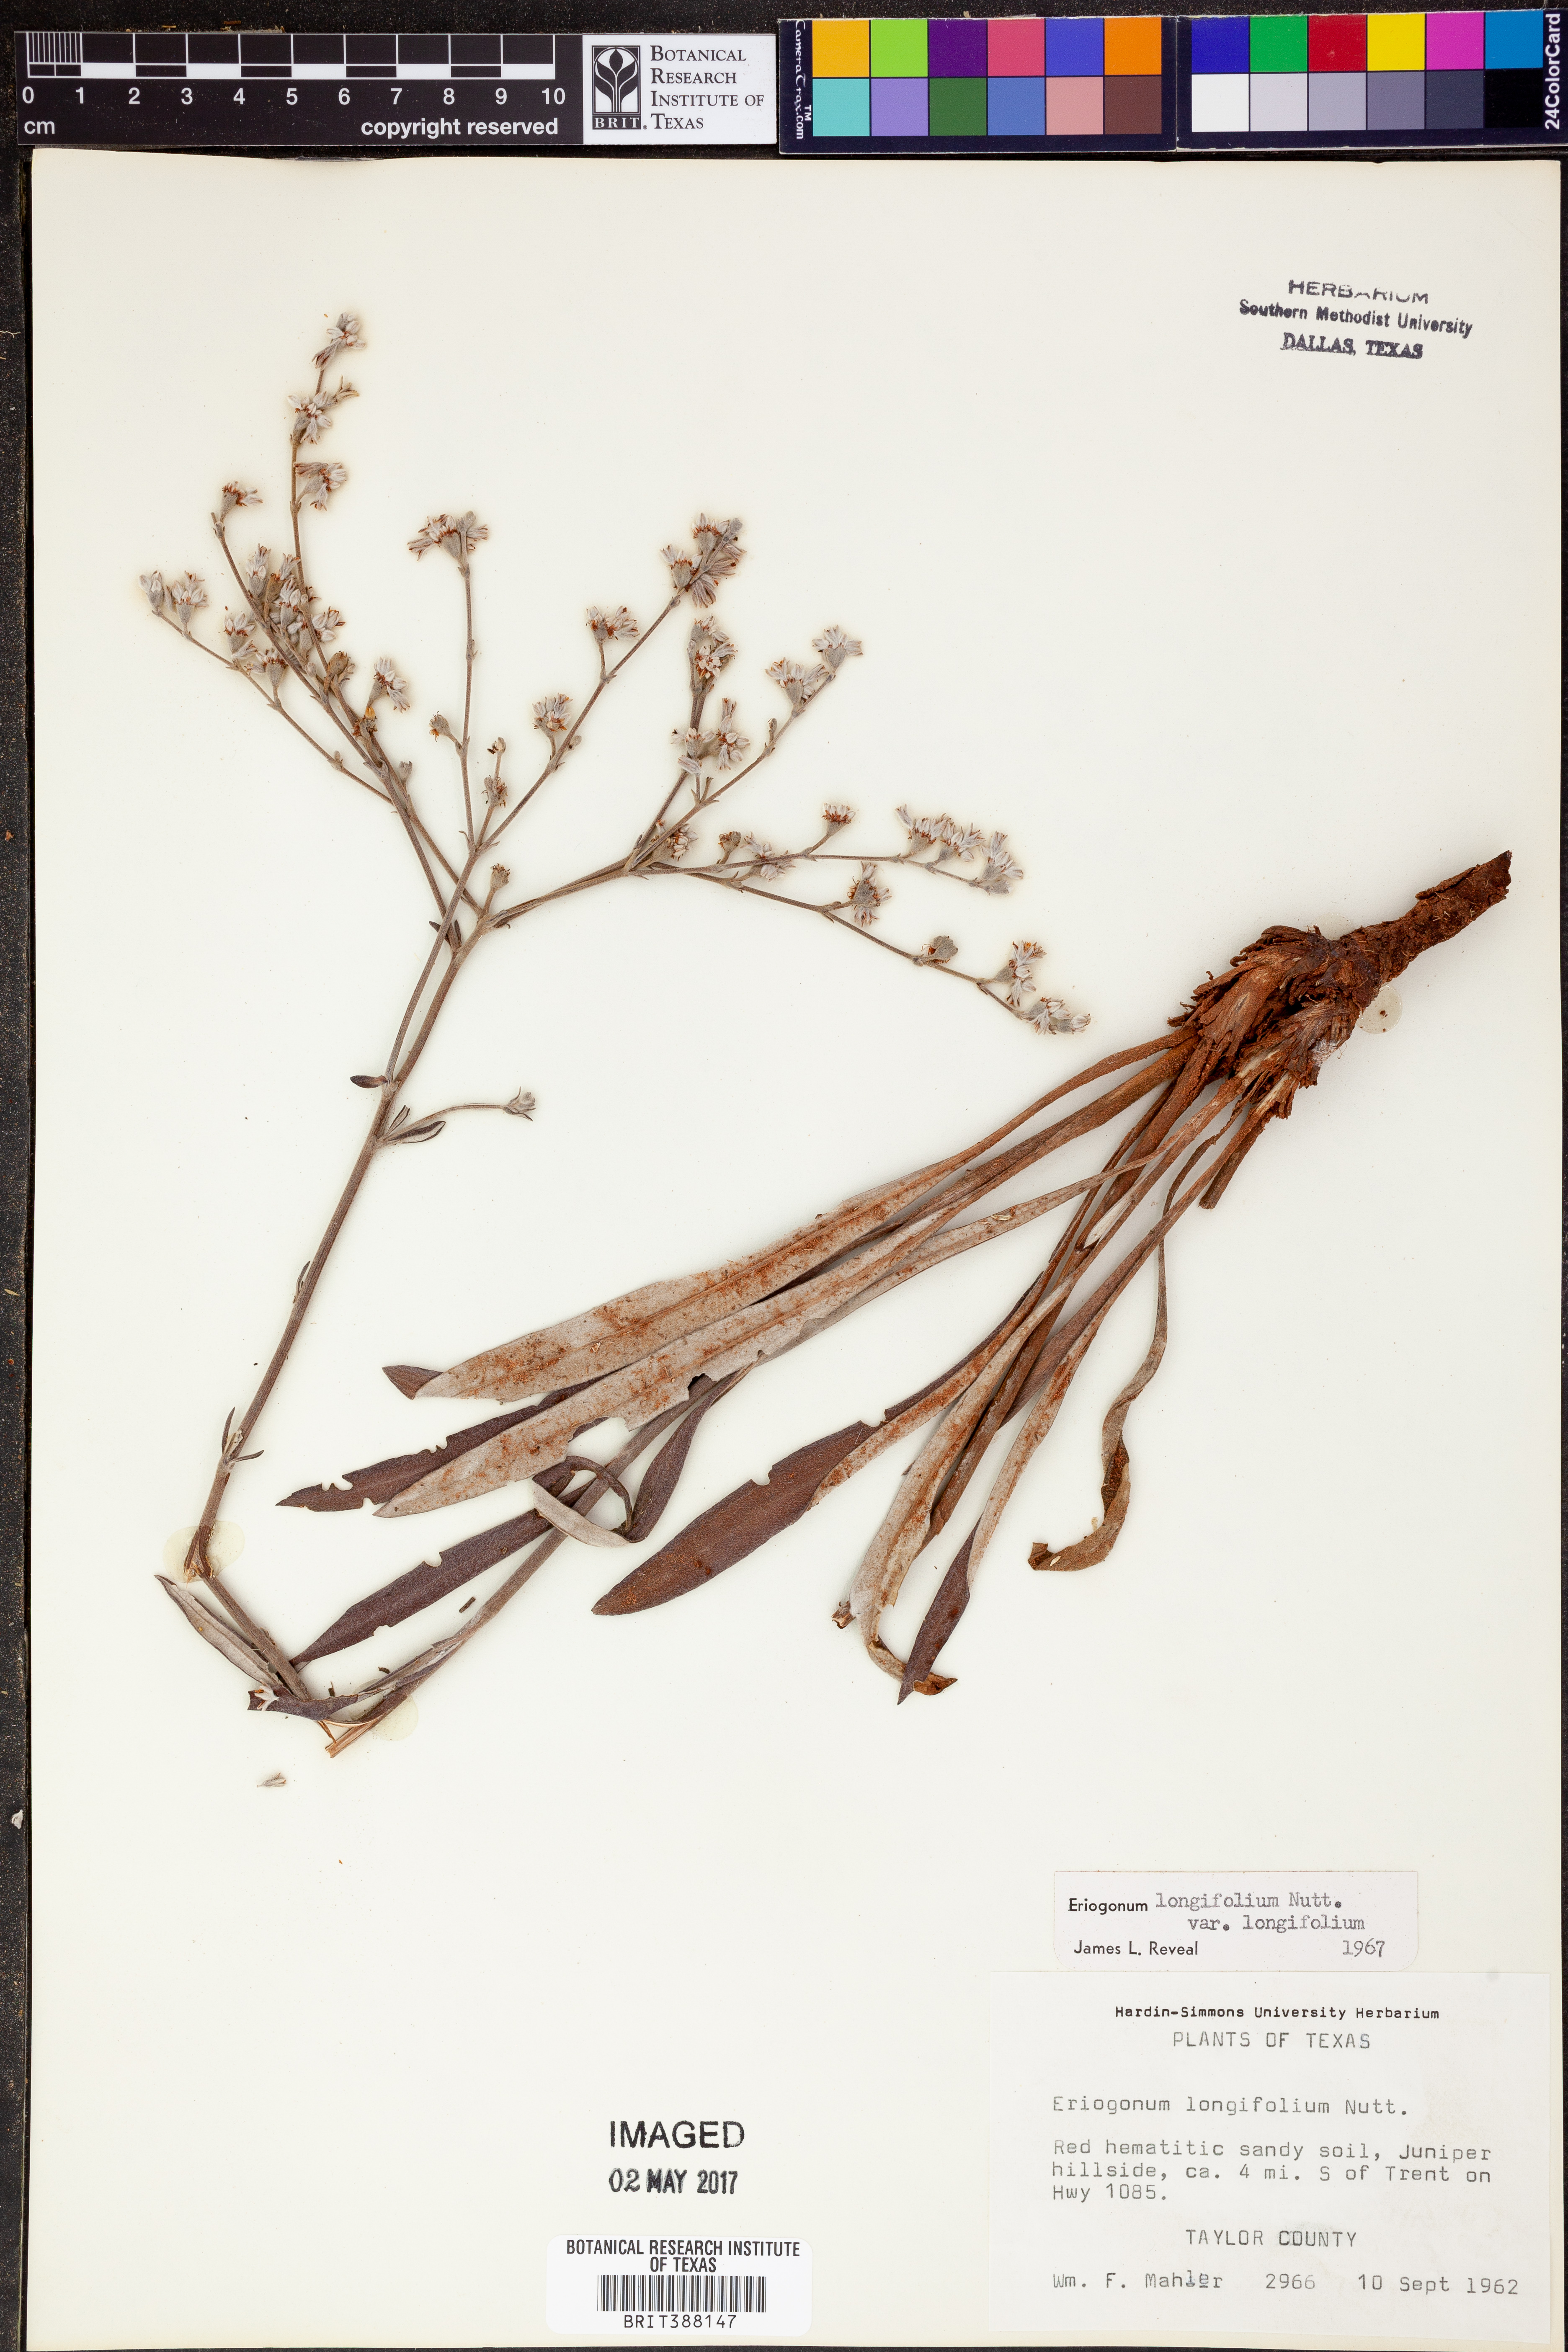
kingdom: Plantae
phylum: Tracheophyta
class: Magnoliopsida
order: Caryophyllales
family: Polygonaceae
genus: Eriogonum
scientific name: Eriogonum longifolium
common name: Longleaf wild buckwheat
